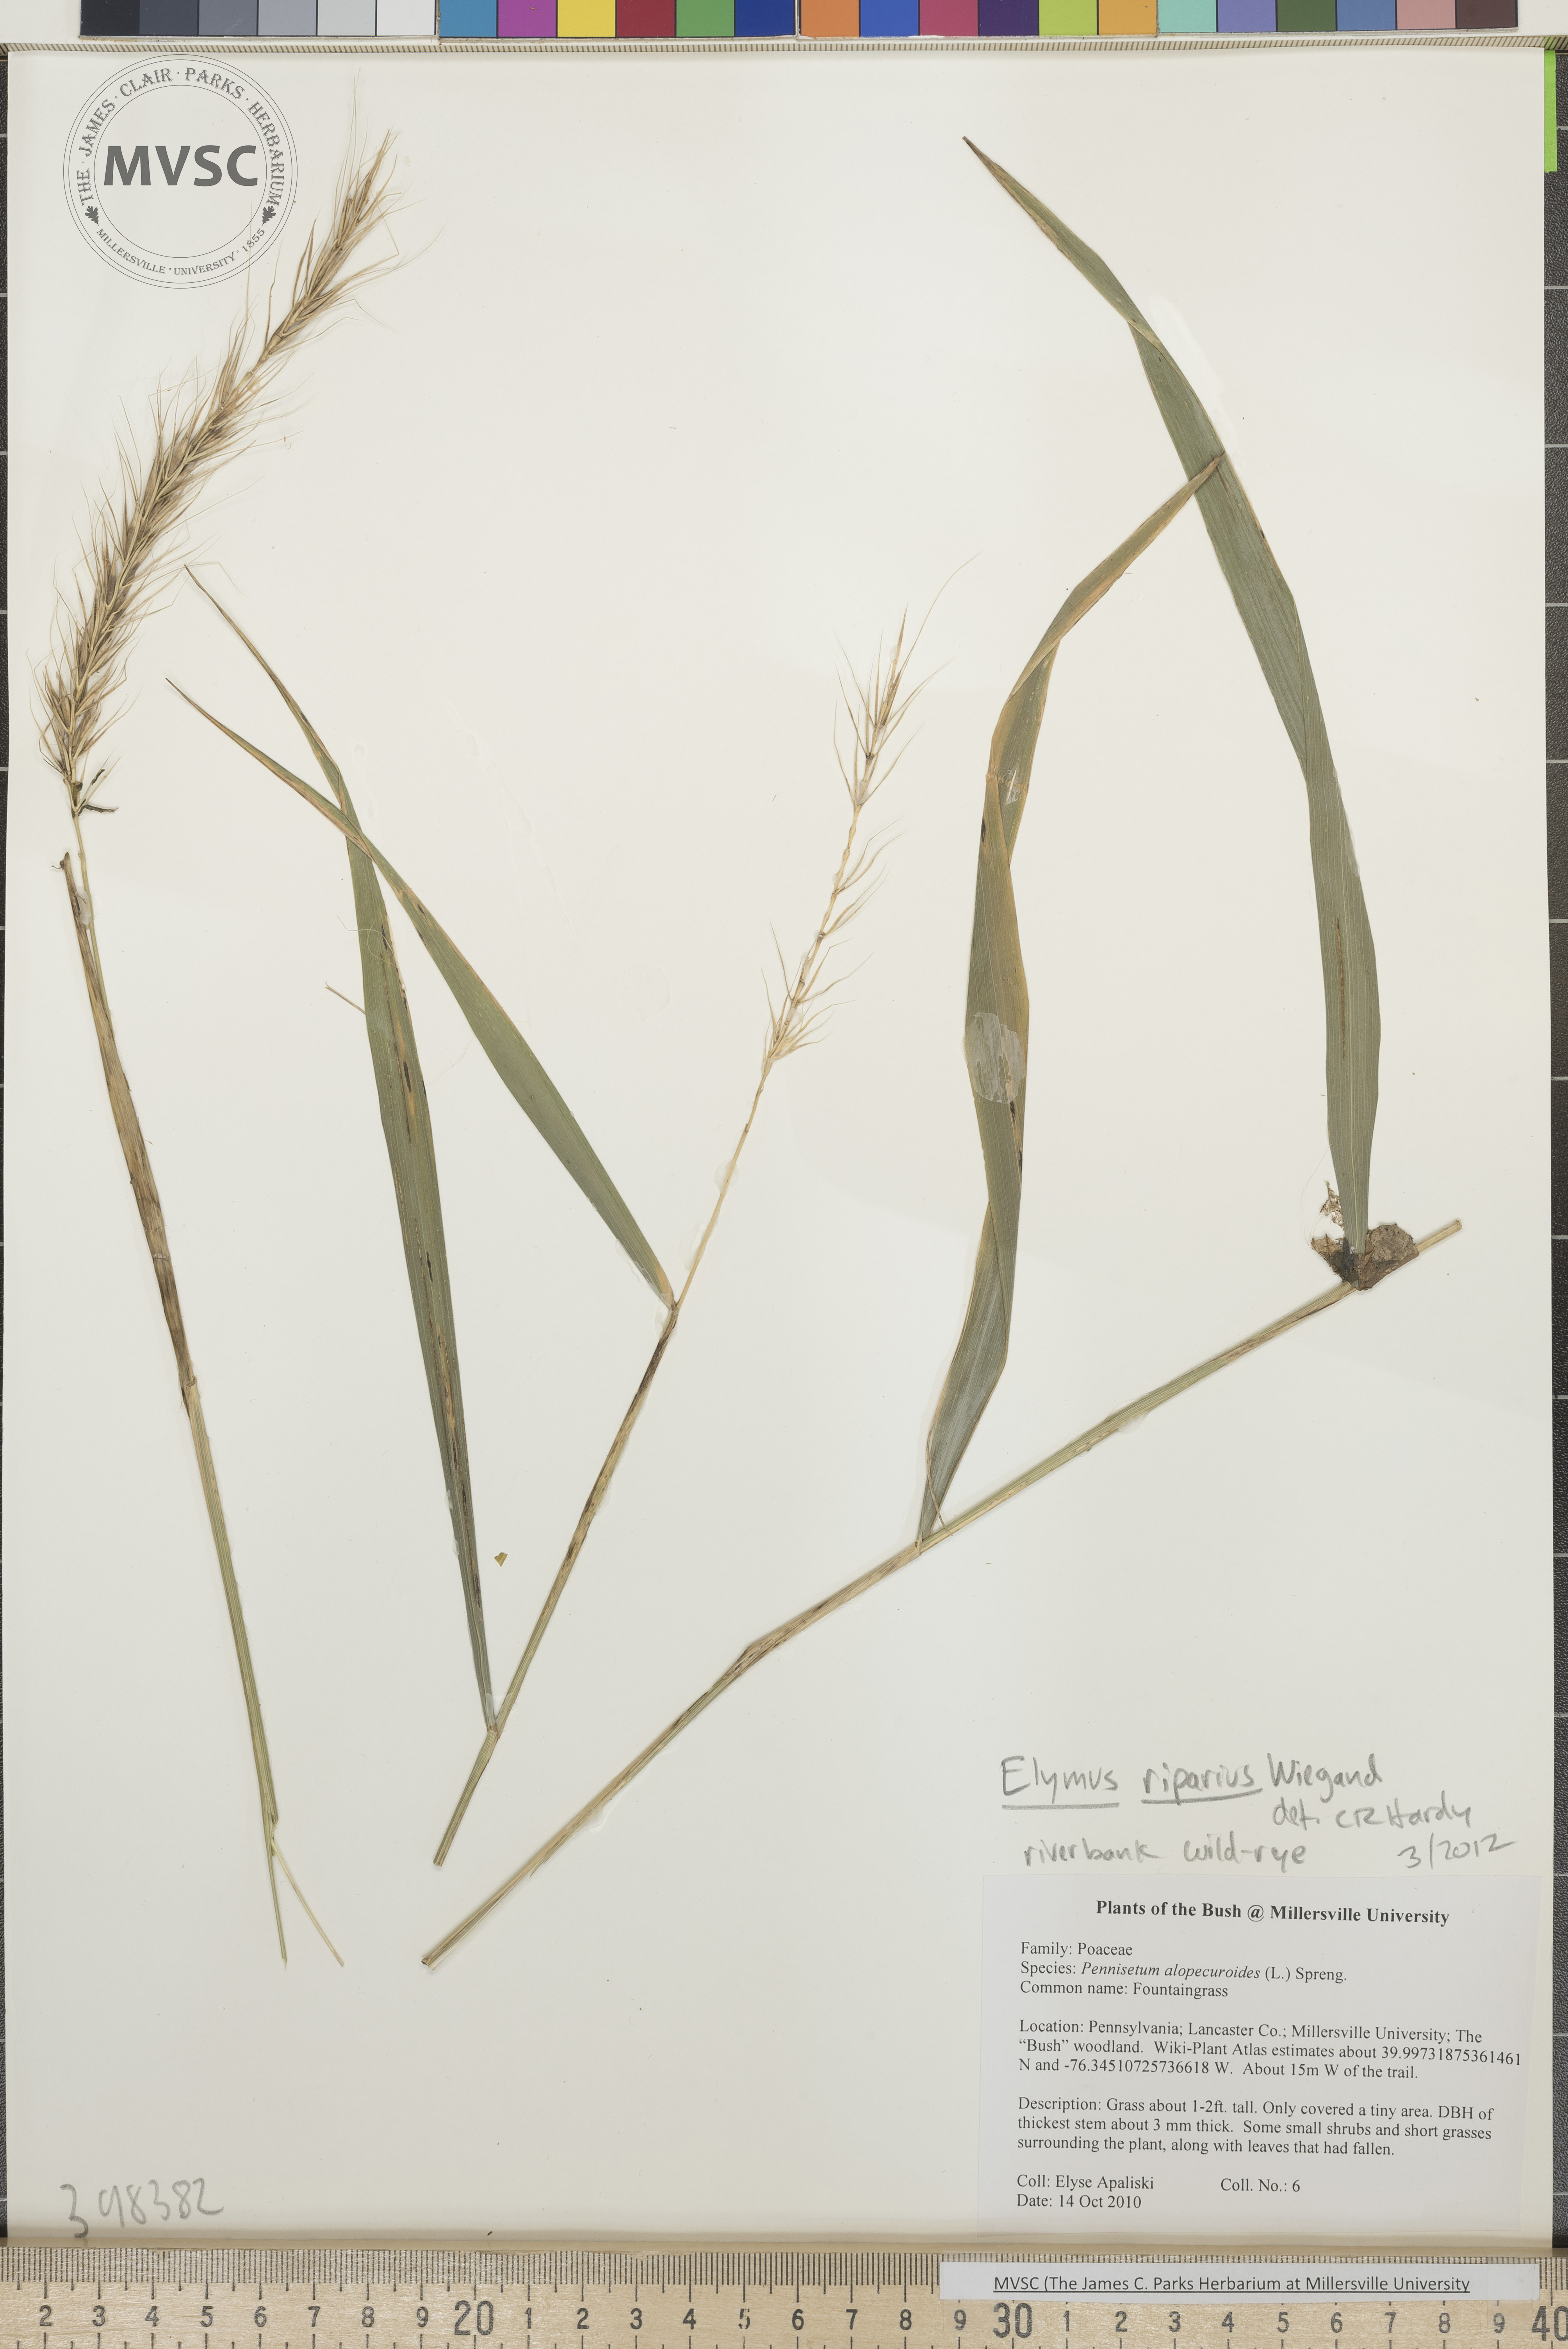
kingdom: Plantae
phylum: Tracheophyta
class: Liliopsida
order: Poales
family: Poaceae
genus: Elymus
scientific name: Elymus riparius
